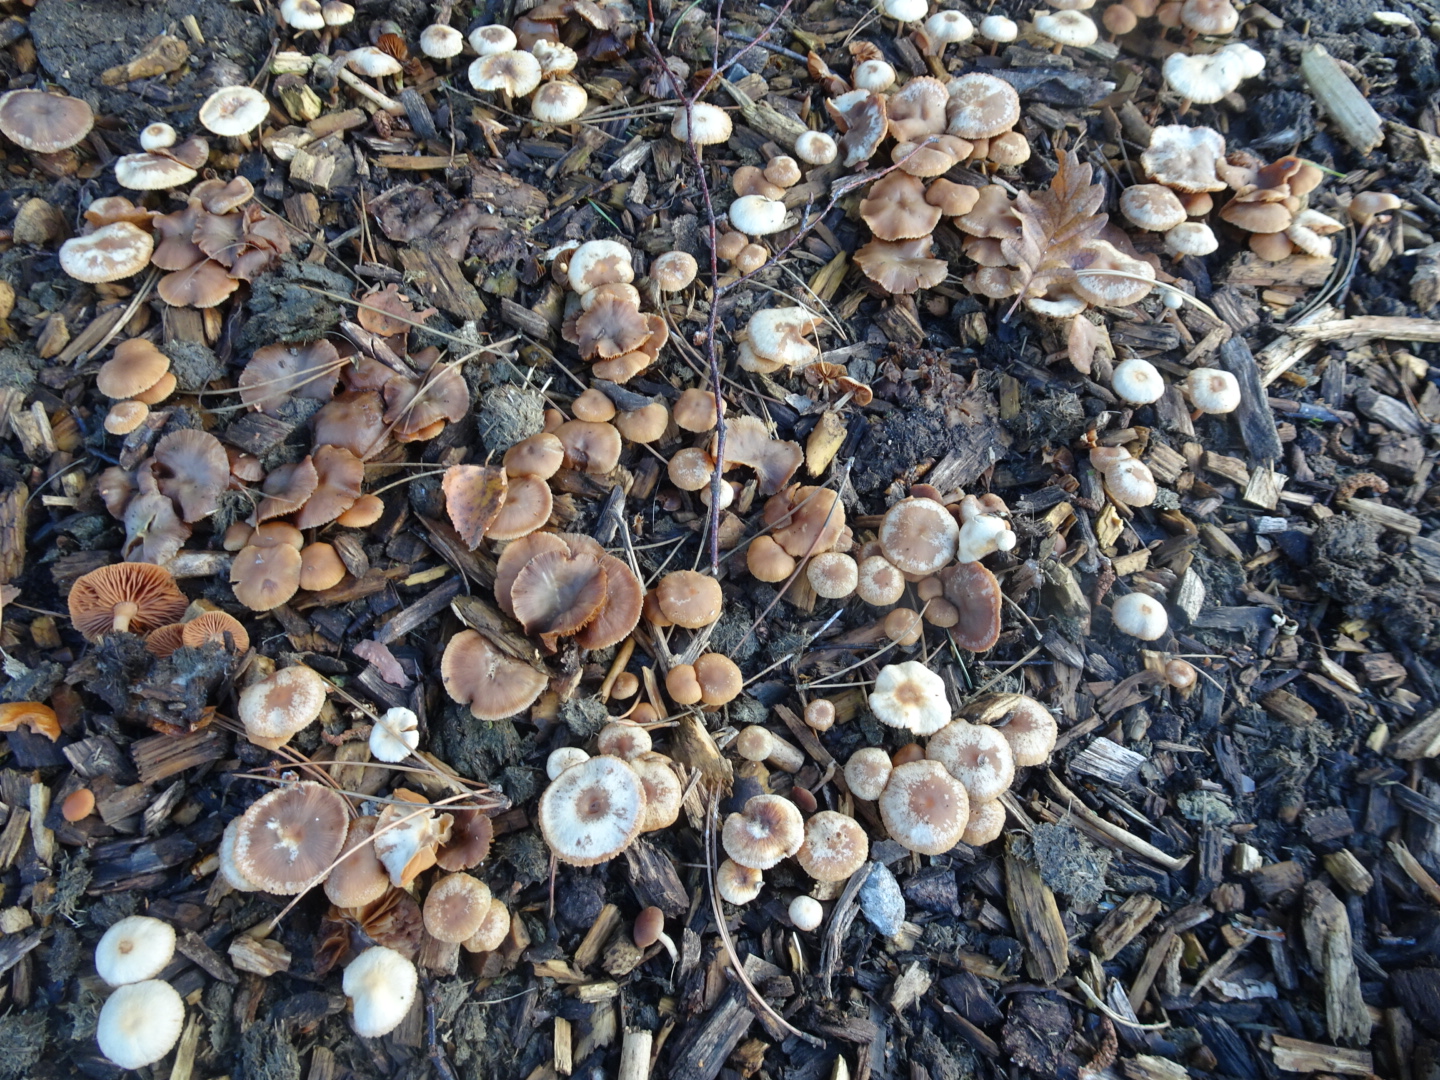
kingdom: Fungi
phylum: Basidiomycota
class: Agaricomycetes
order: Agaricales
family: Tubariaceae
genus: Tubaria
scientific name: Tubaria furfuracea
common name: kliddet fnughat
